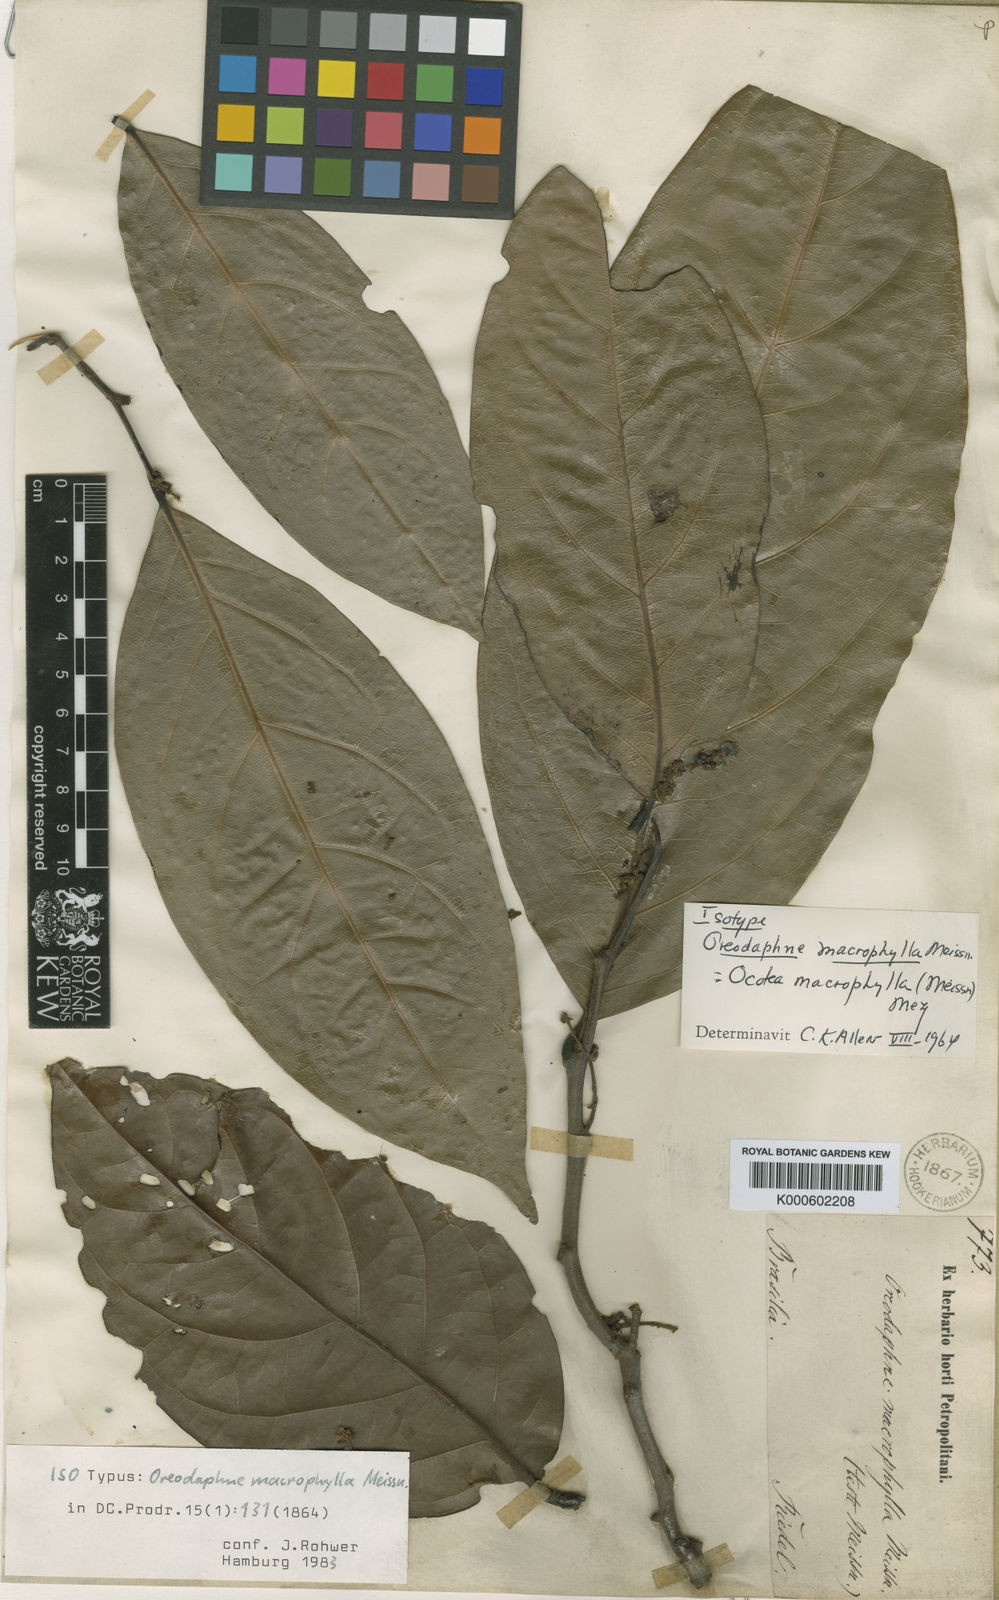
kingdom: Plantae
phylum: Tracheophyta
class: Magnoliopsida
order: Laurales
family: Lauraceae
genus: Ocotea
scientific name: Ocotea magnilimba
